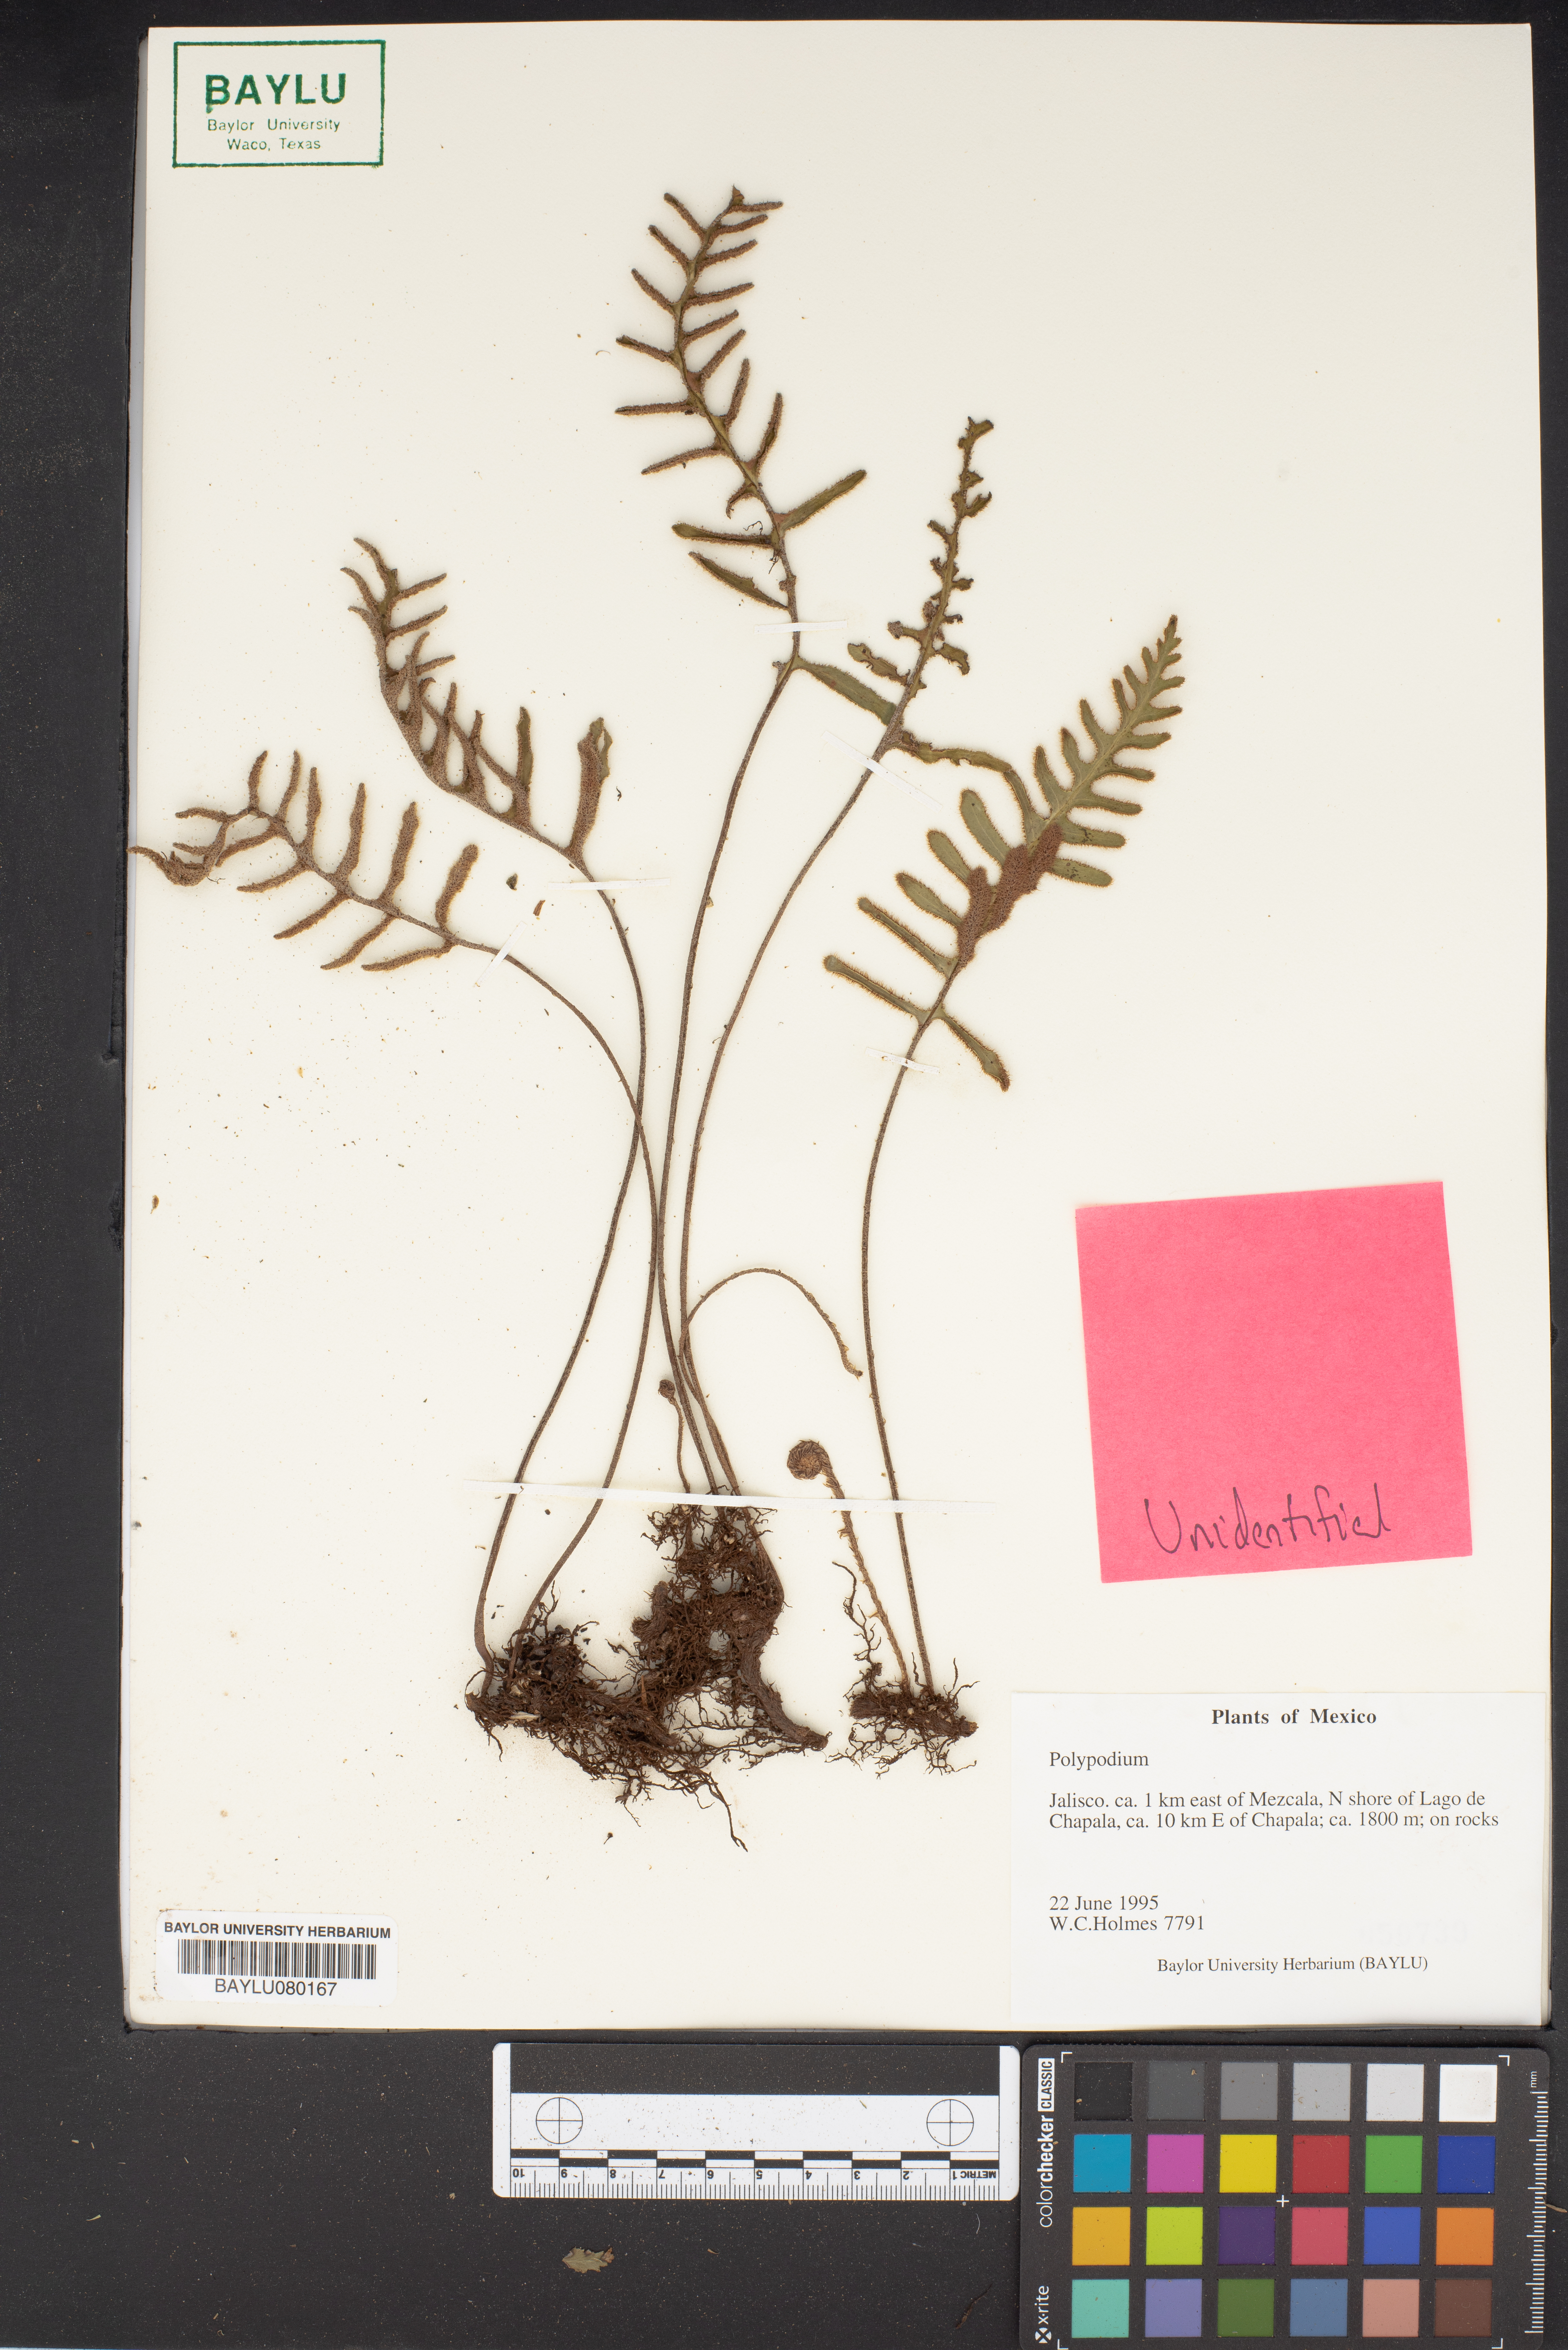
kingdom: Plantae
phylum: Tracheophyta
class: Polypodiopsida
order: Polypodiales
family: Polypodiaceae
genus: Polypodium
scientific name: Polypodium
